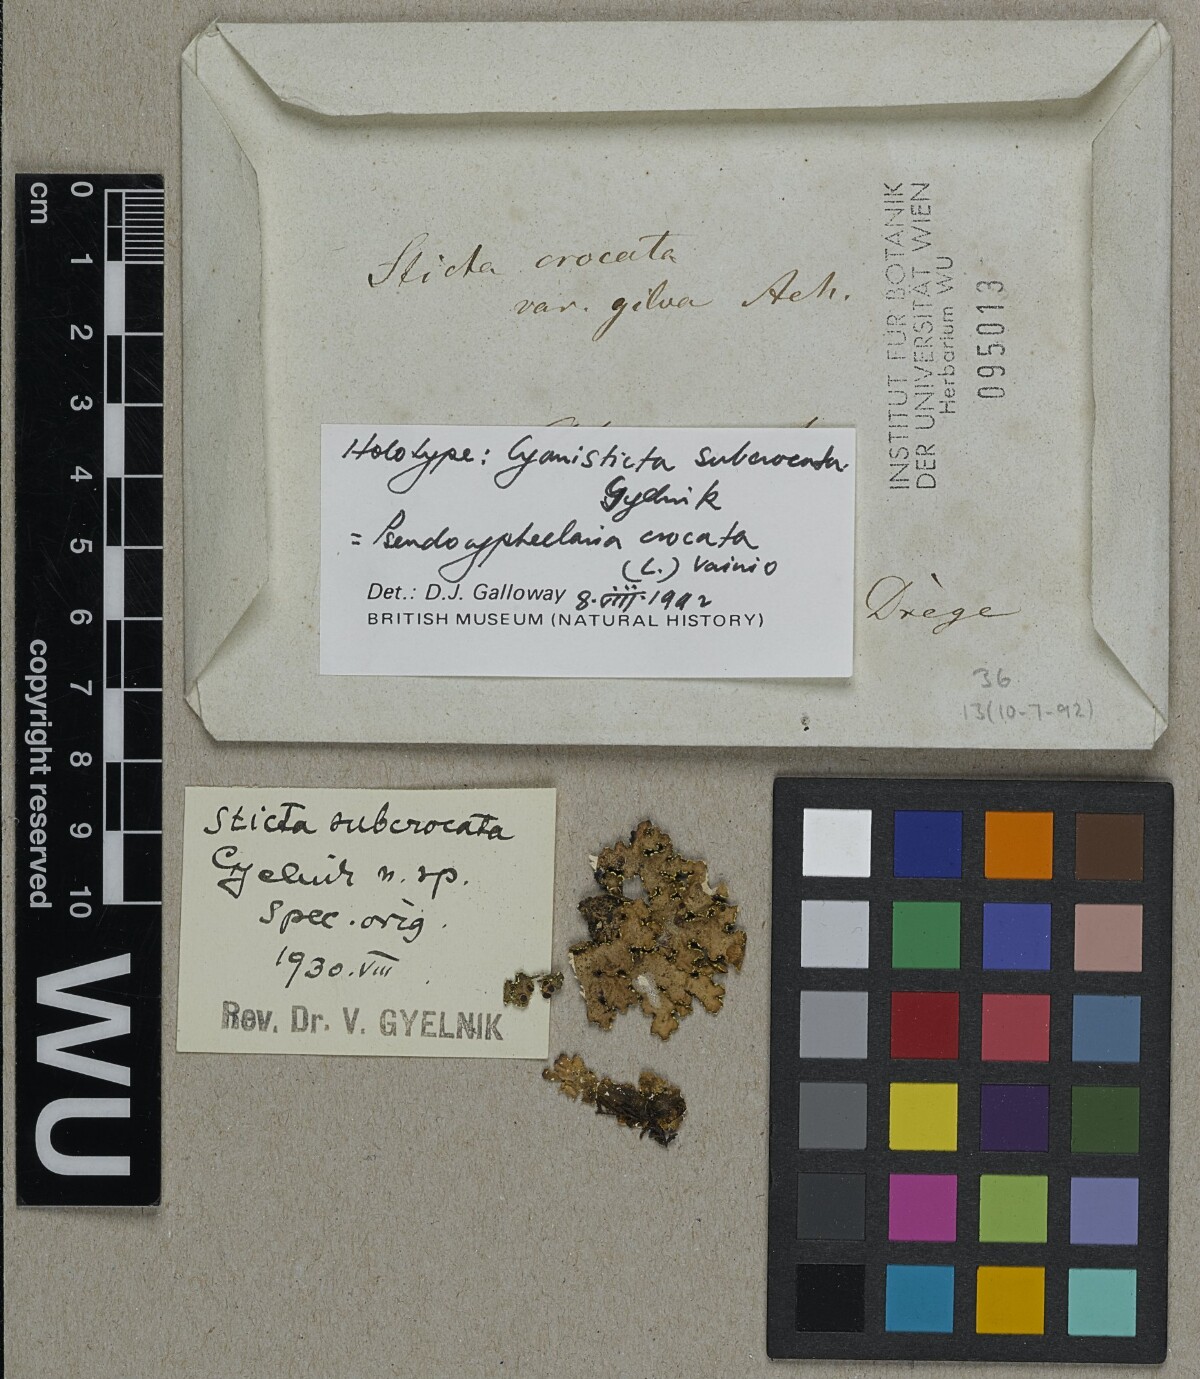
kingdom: Fungi
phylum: Ascomycota
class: Lecanoromycetes
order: Peltigerales
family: Lobariaceae
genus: Pseudocyphellaria
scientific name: Pseudocyphellaria crocata
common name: Golden specklebelly
